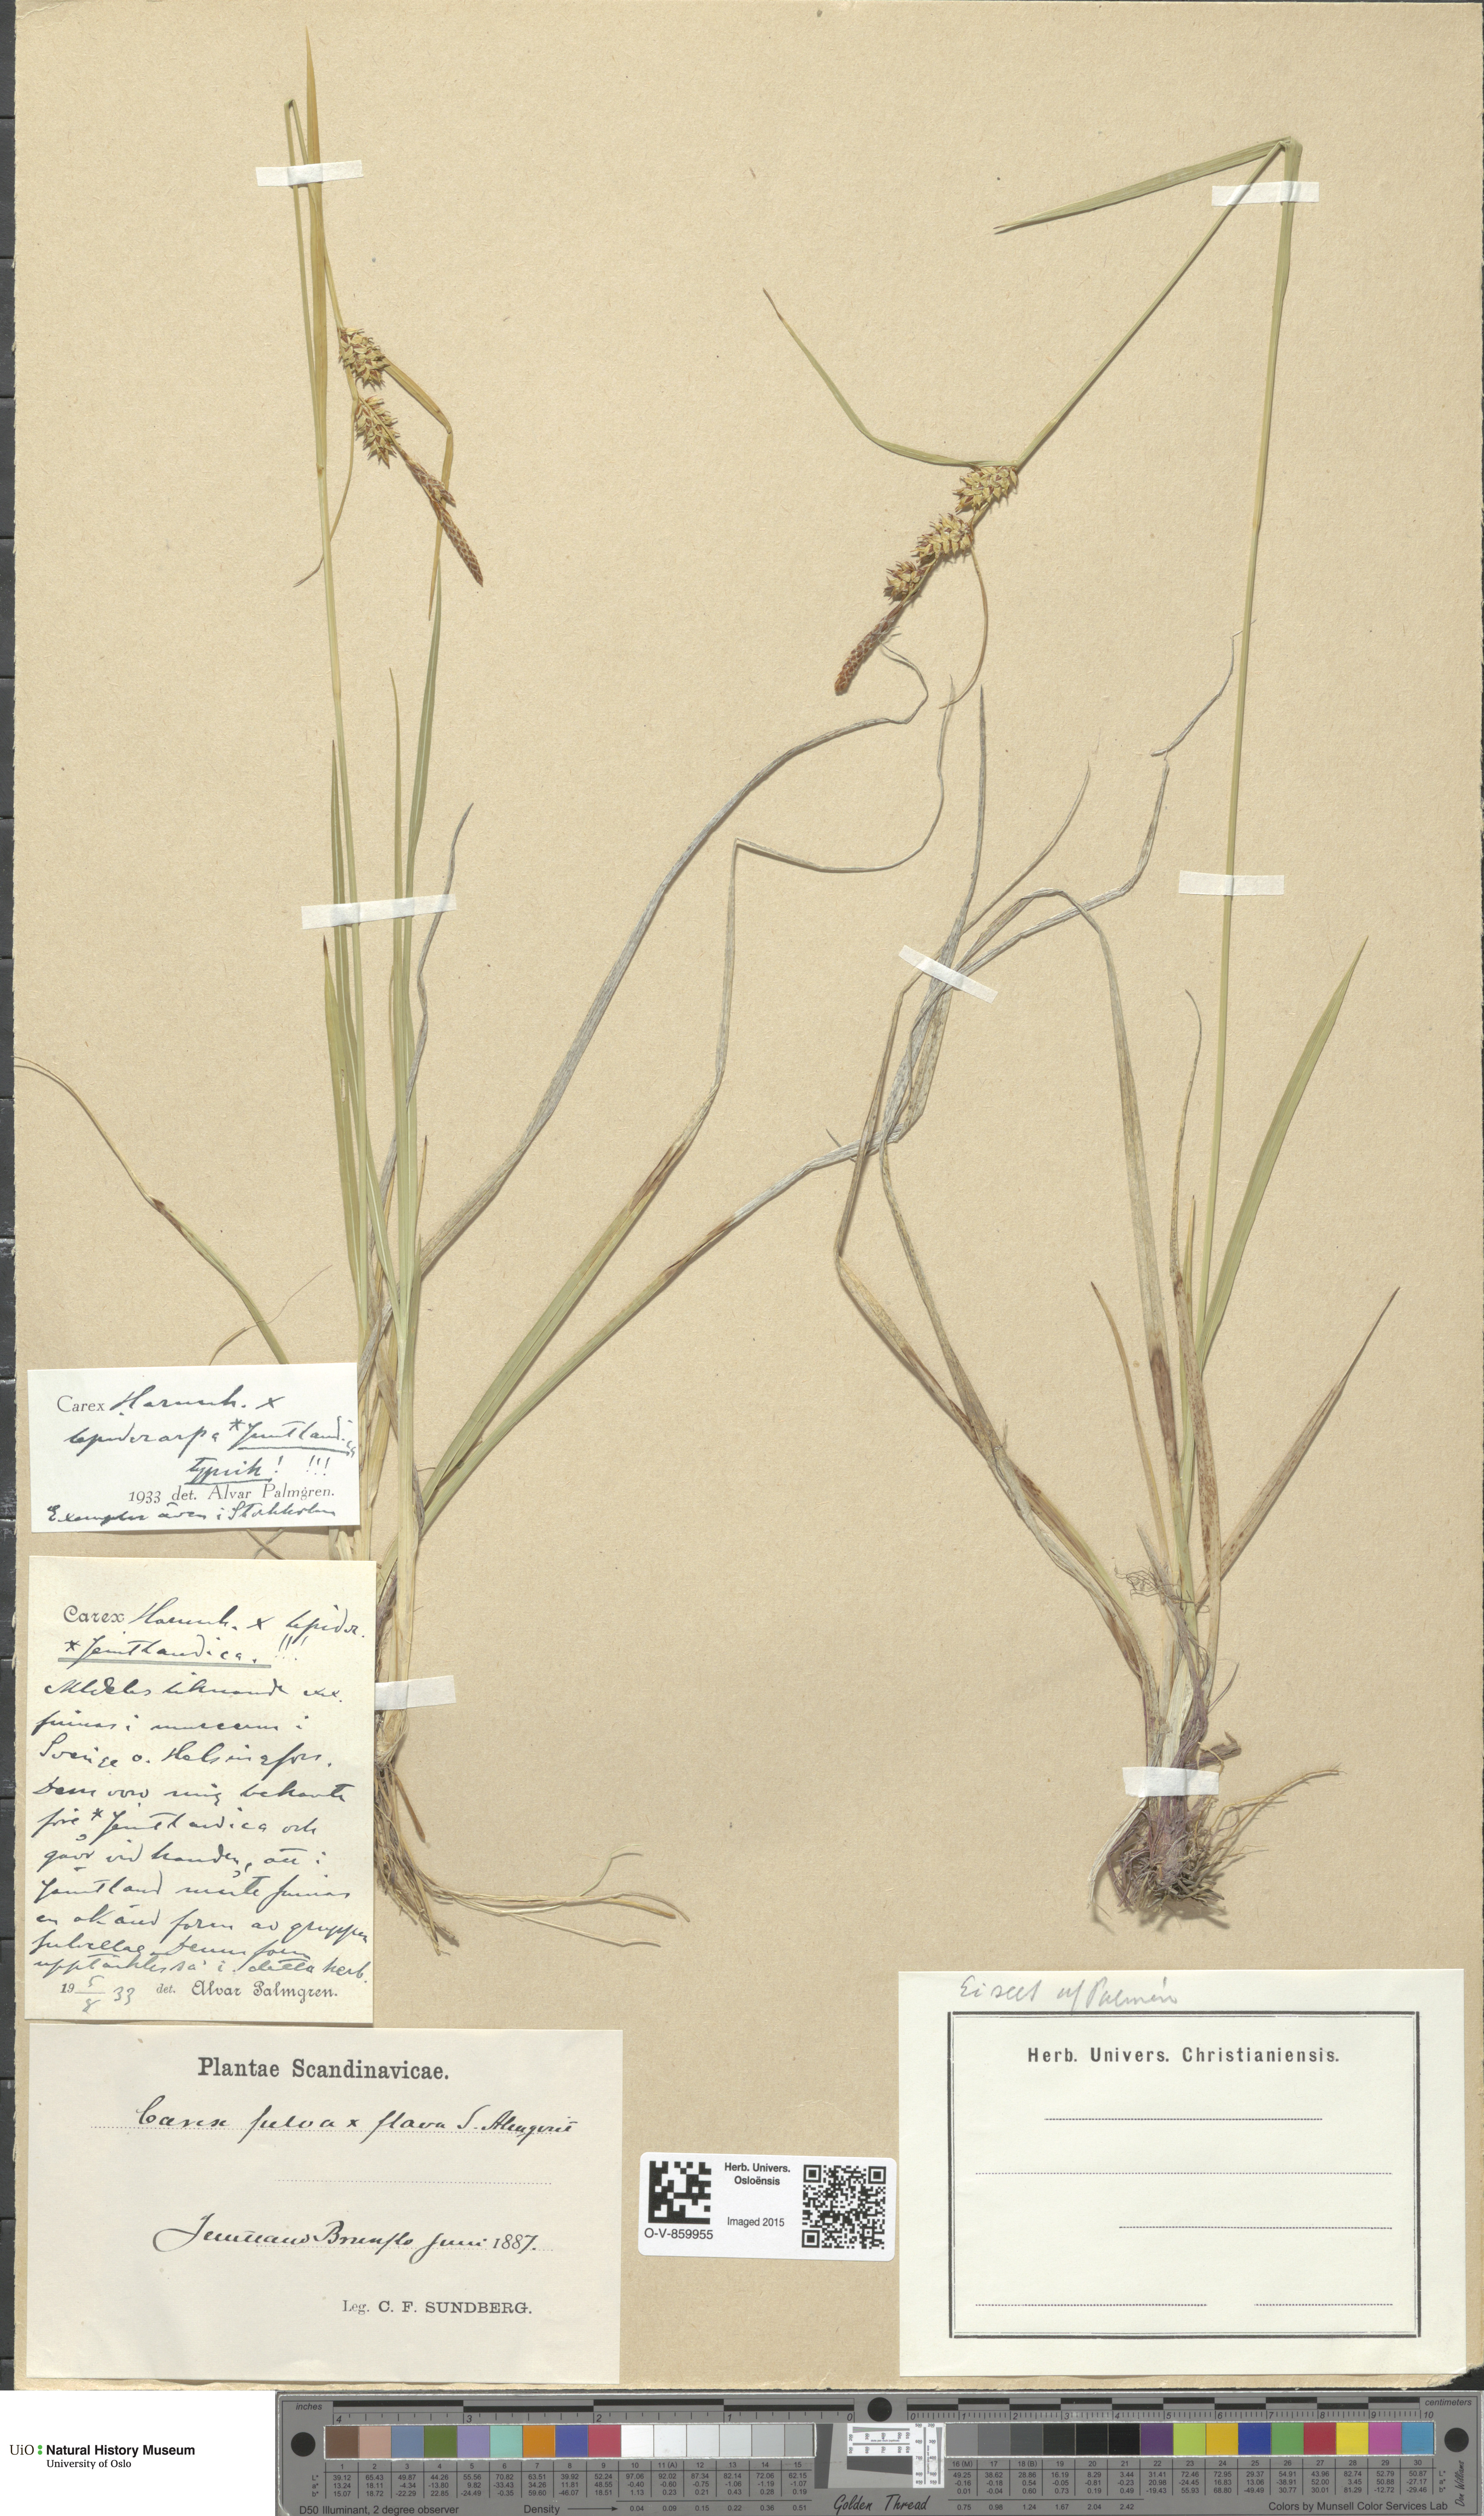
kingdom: Plantae
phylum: Tracheophyta
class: Liliopsida
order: Poales
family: Cyperaceae
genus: Carex
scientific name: Carex
